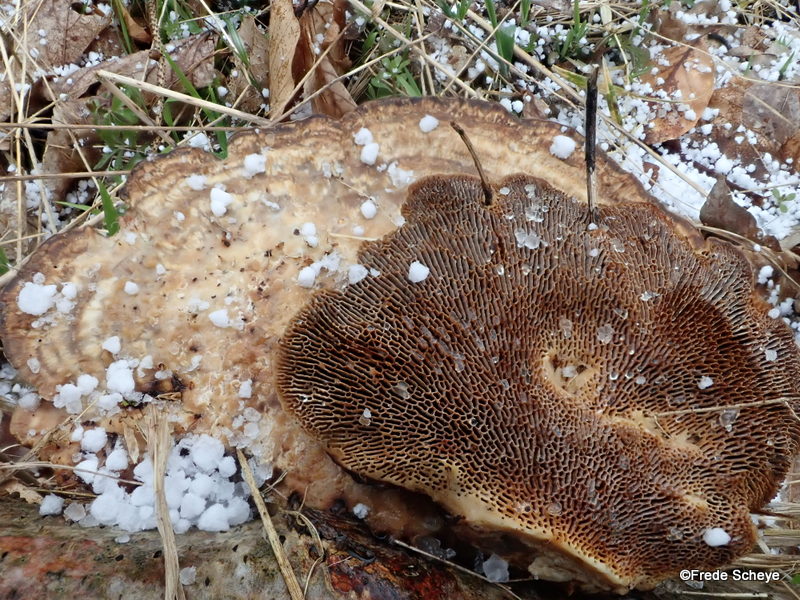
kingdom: Fungi
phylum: Basidiomycota
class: Agaricomycetes
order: Polyporales
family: Polyporaceae
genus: Daedaleopsis
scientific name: Daedaleopsis confragosa
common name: rødmende læderporesvamp
